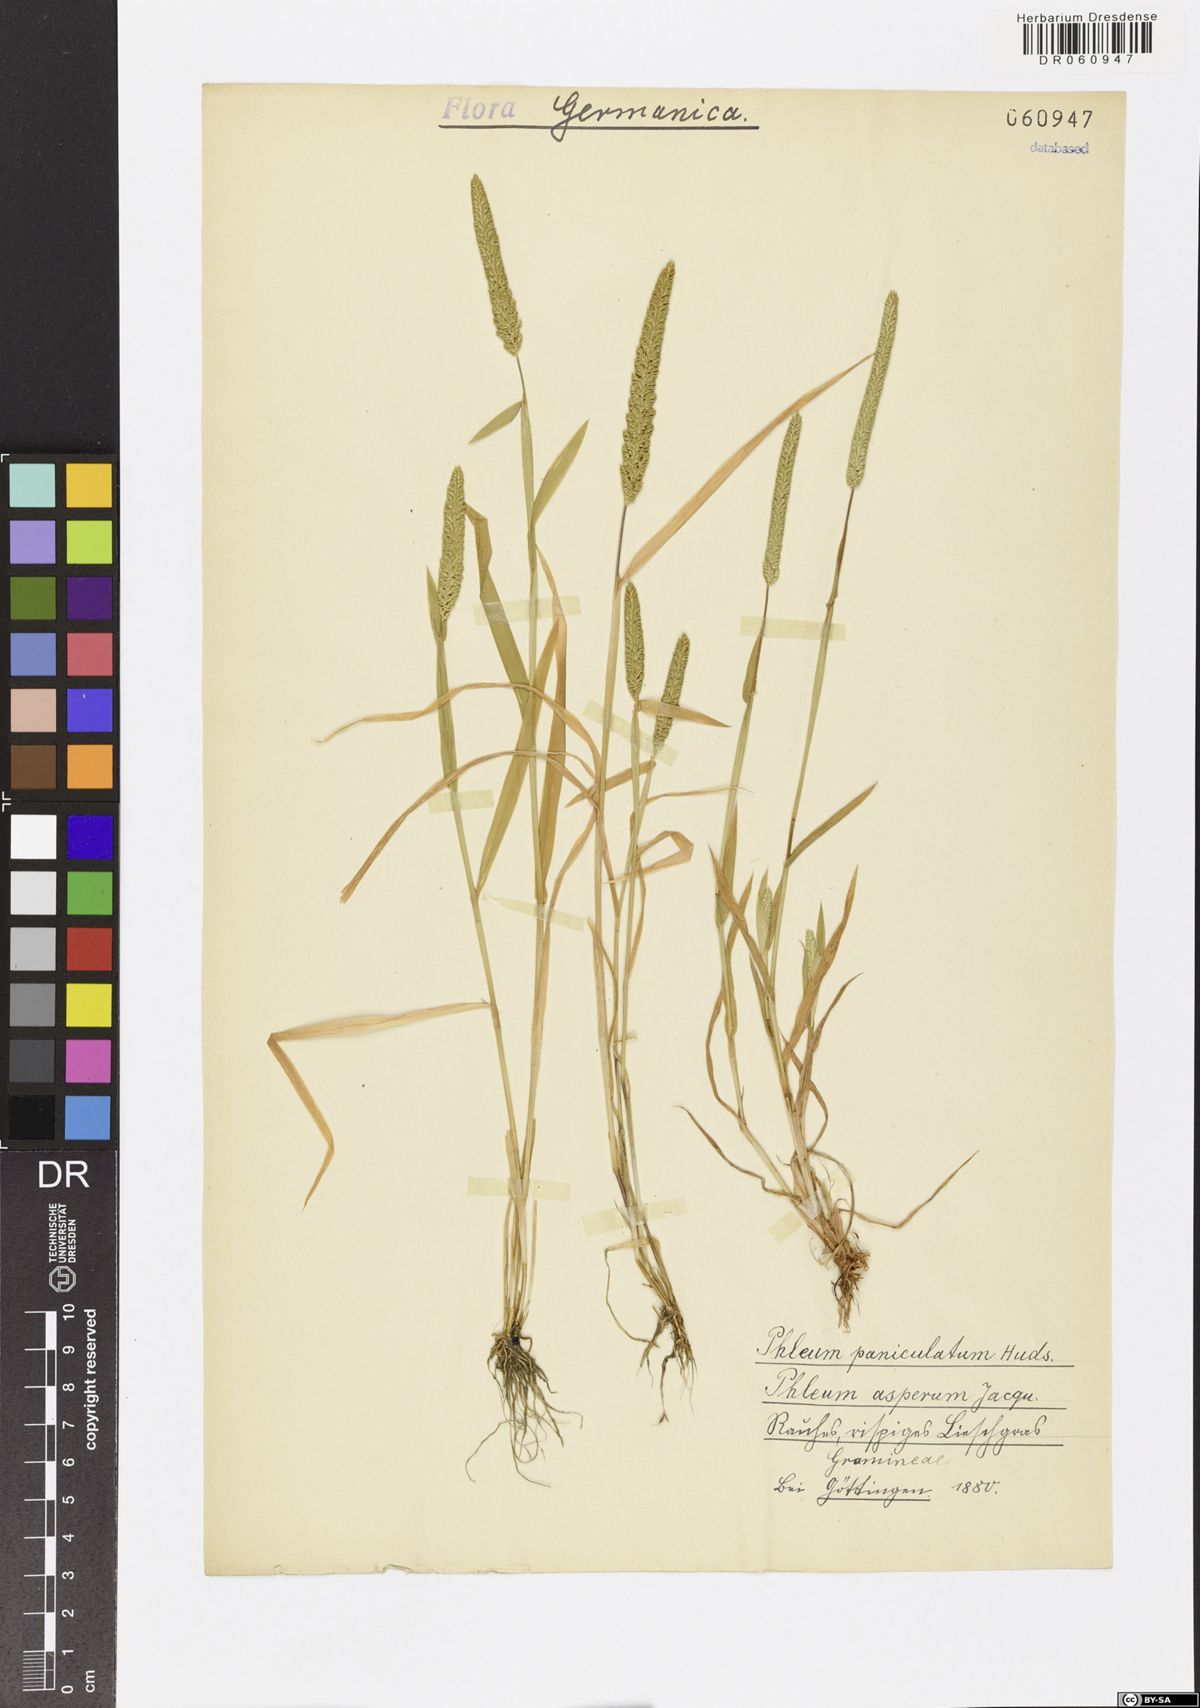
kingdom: Plantae
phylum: Tracheophyta
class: Liliopsida
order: Poales
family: Poaceae
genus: Phleum
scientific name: Phleum paniculatum
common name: British timothy
